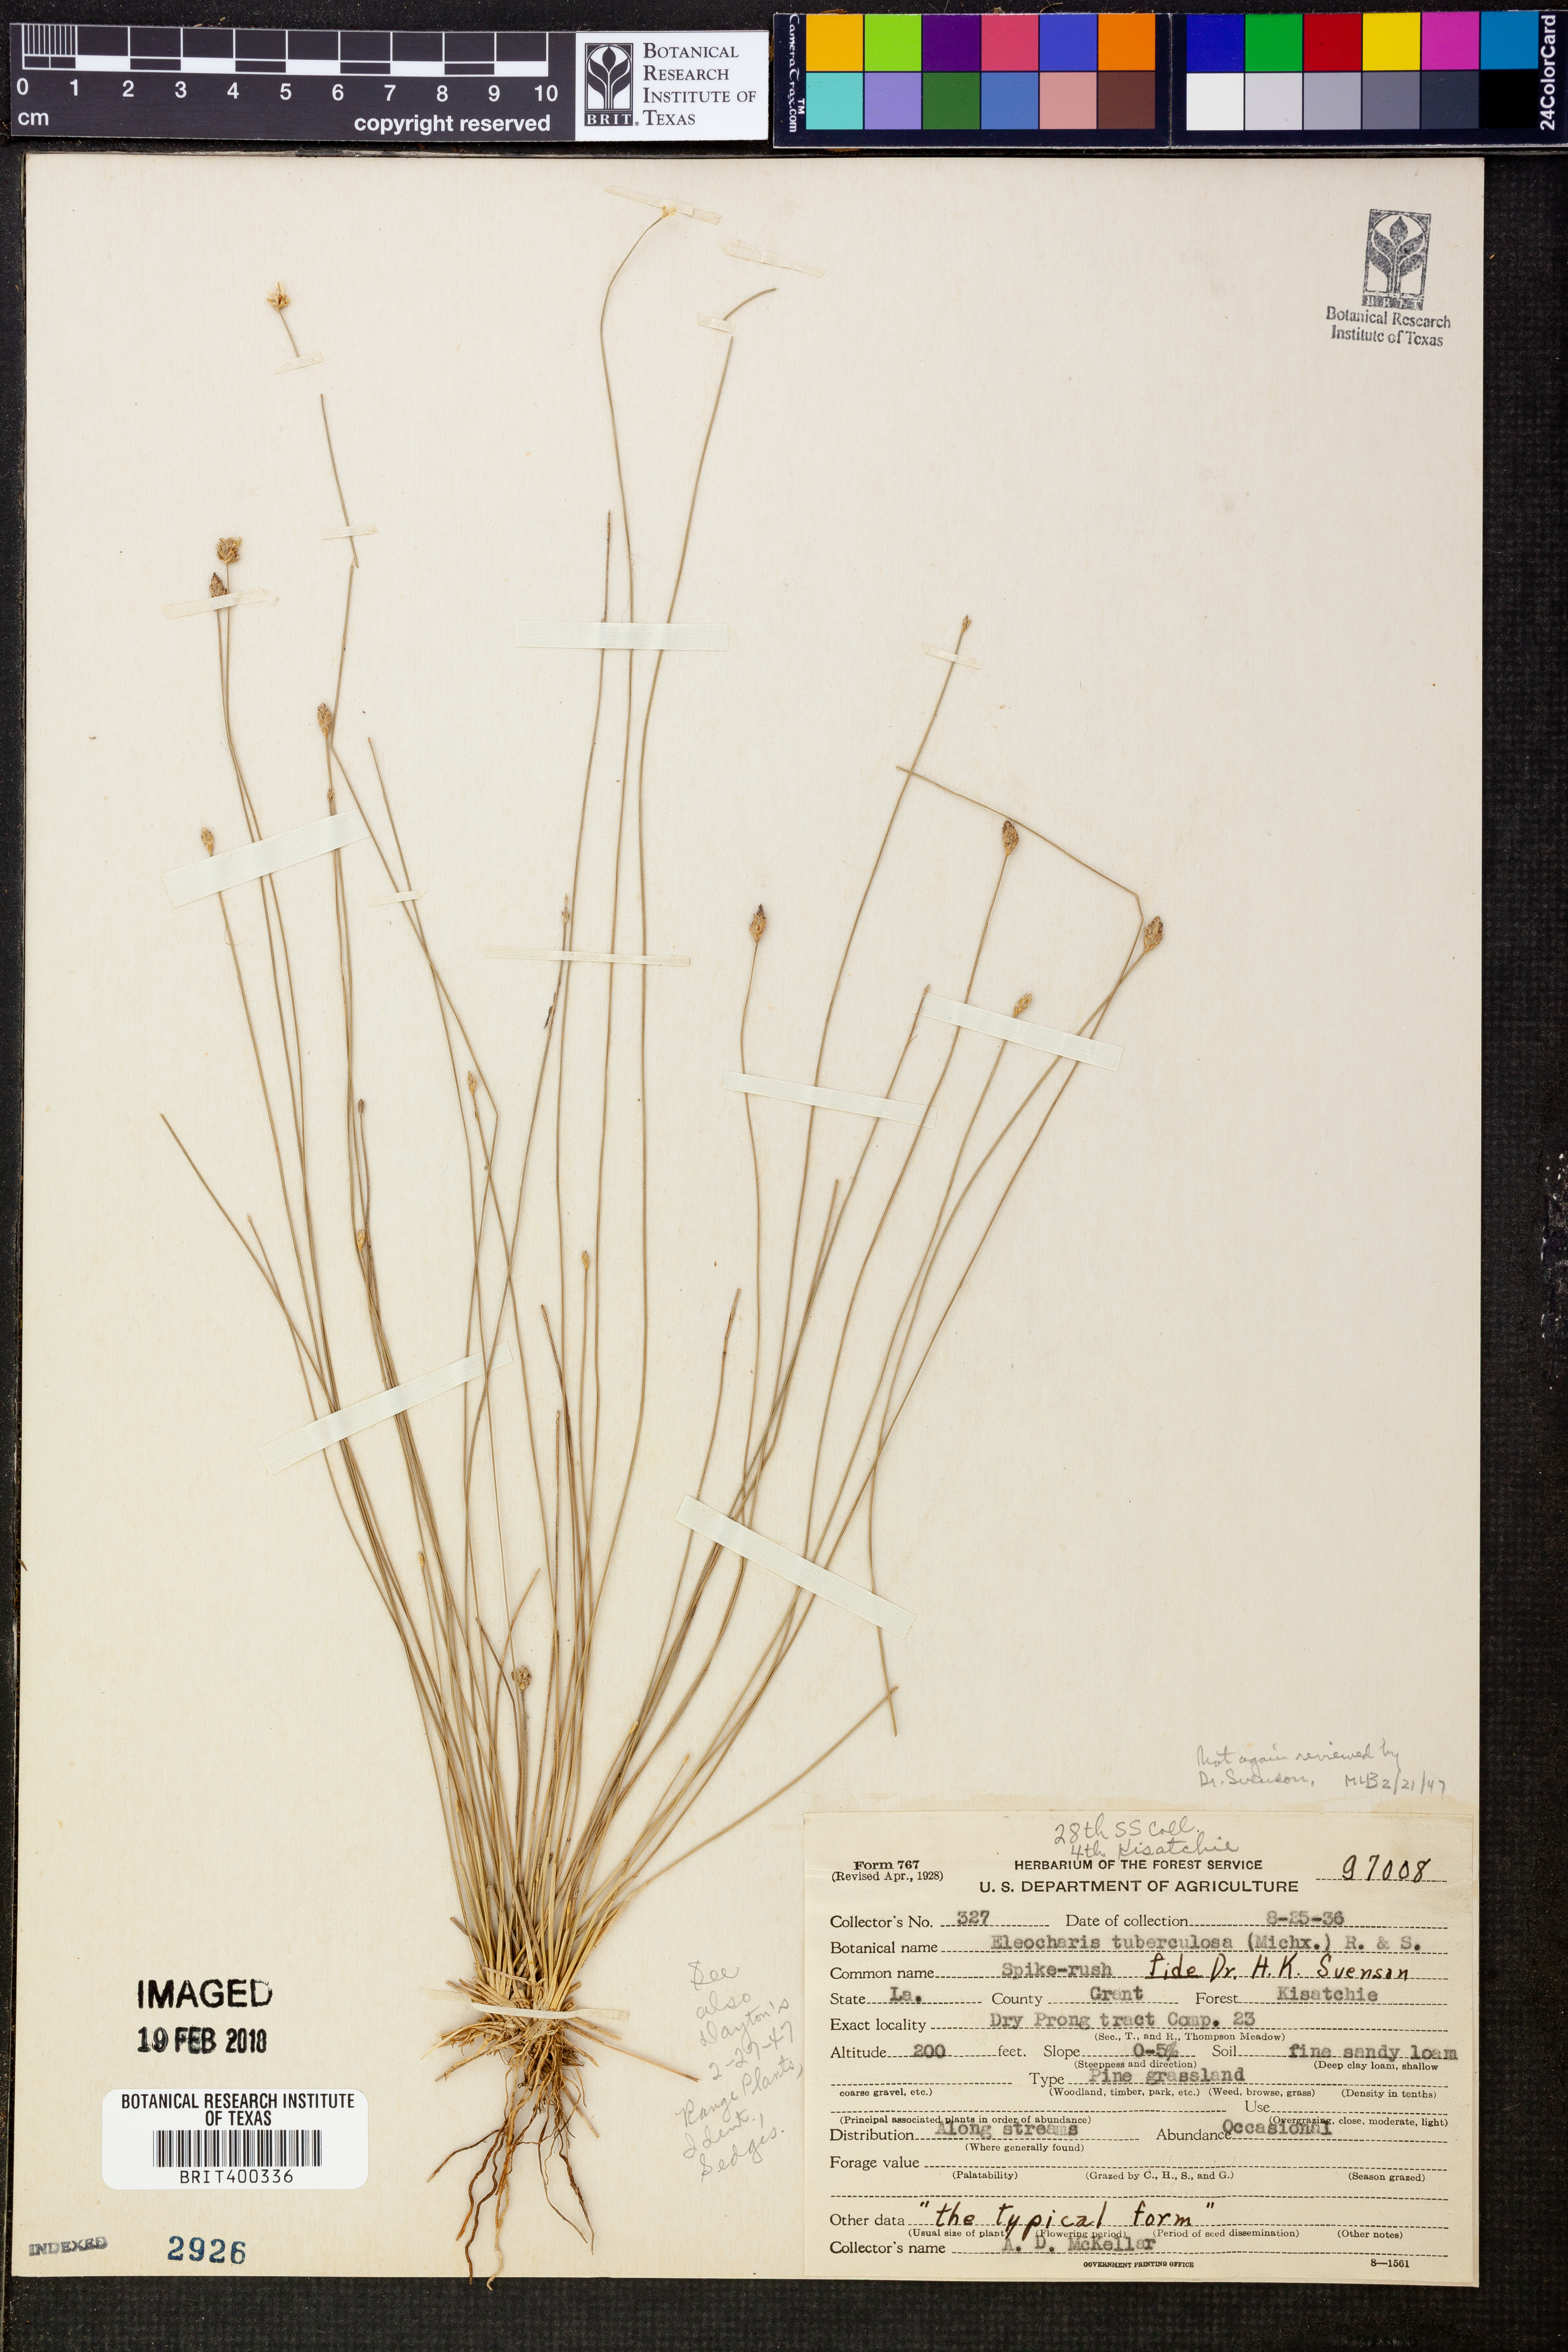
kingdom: Plantae
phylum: Tracheophyta
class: Liliopsida
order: Poales
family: Cyperaceae
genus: Eleocharis
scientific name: Eleocharis tuberculosa
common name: Cone-cup spikerush
